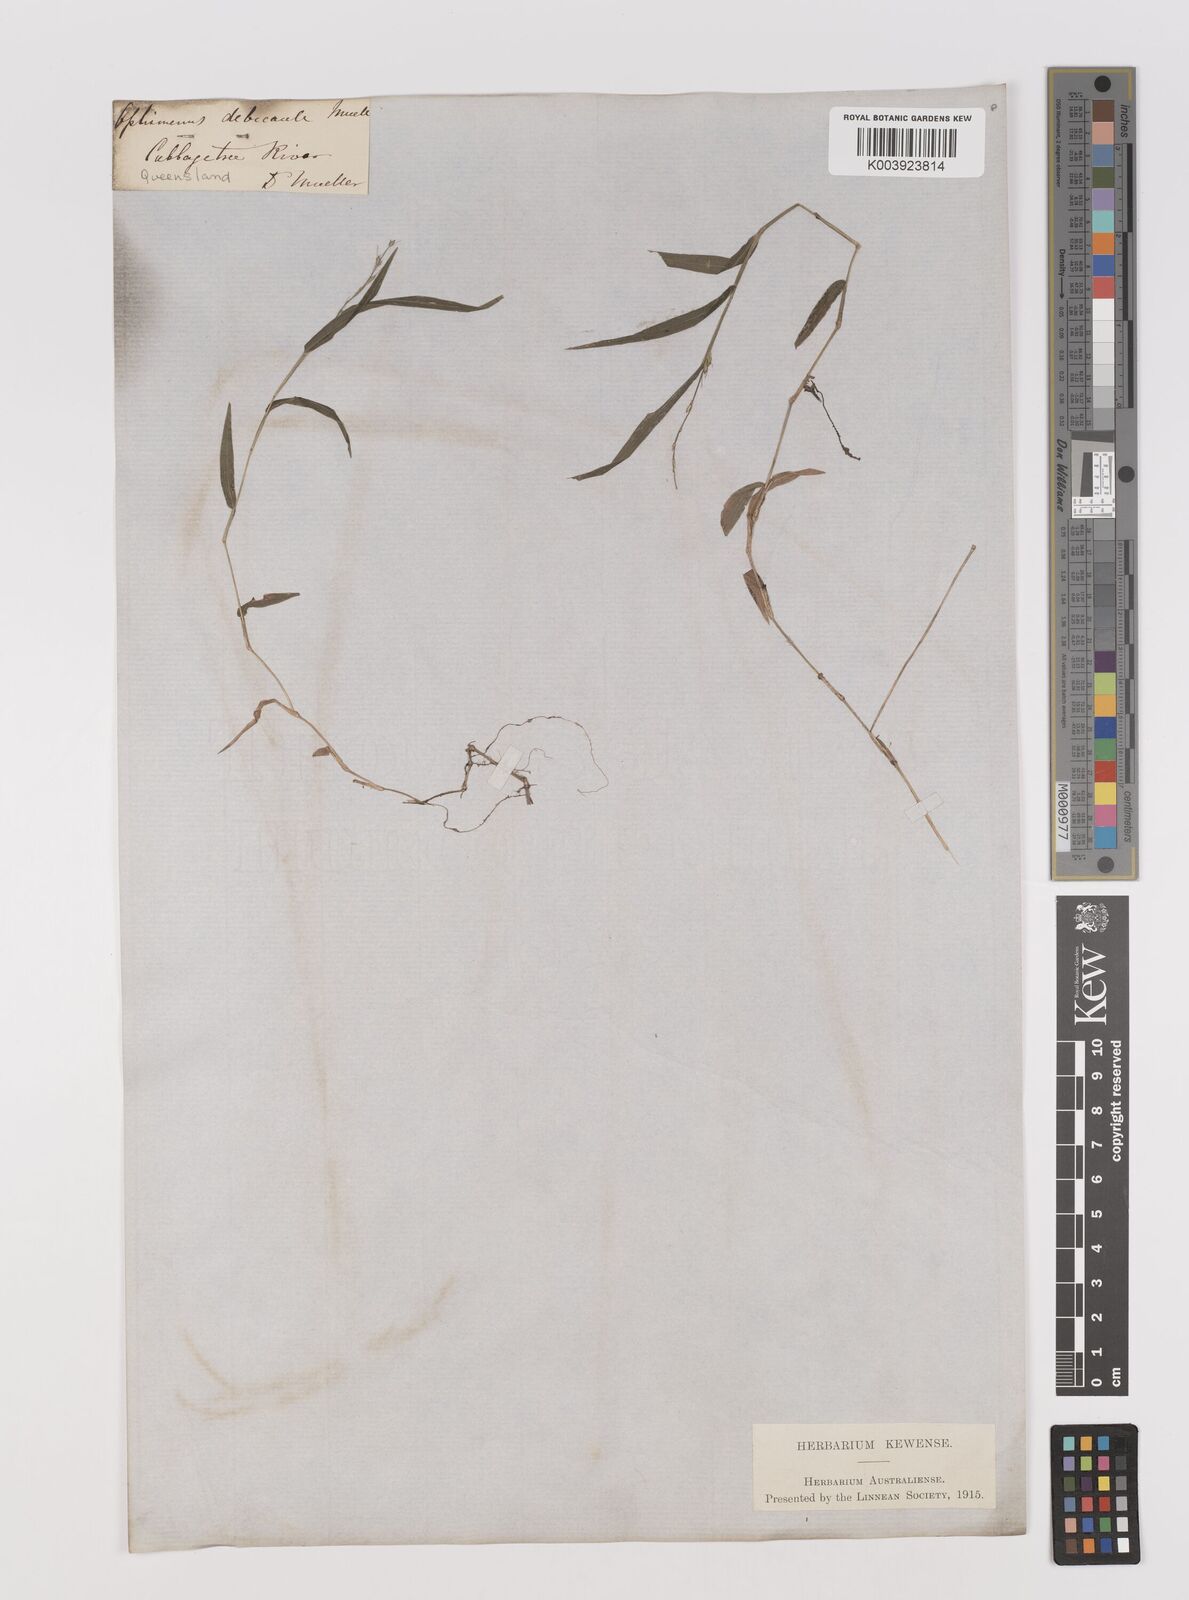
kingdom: Plantae
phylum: Tracheophyta
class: Liliopsida
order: Poales
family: Poaceae
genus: Oplismenus
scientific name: Oplismenus hirtellus
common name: Basketgrass
